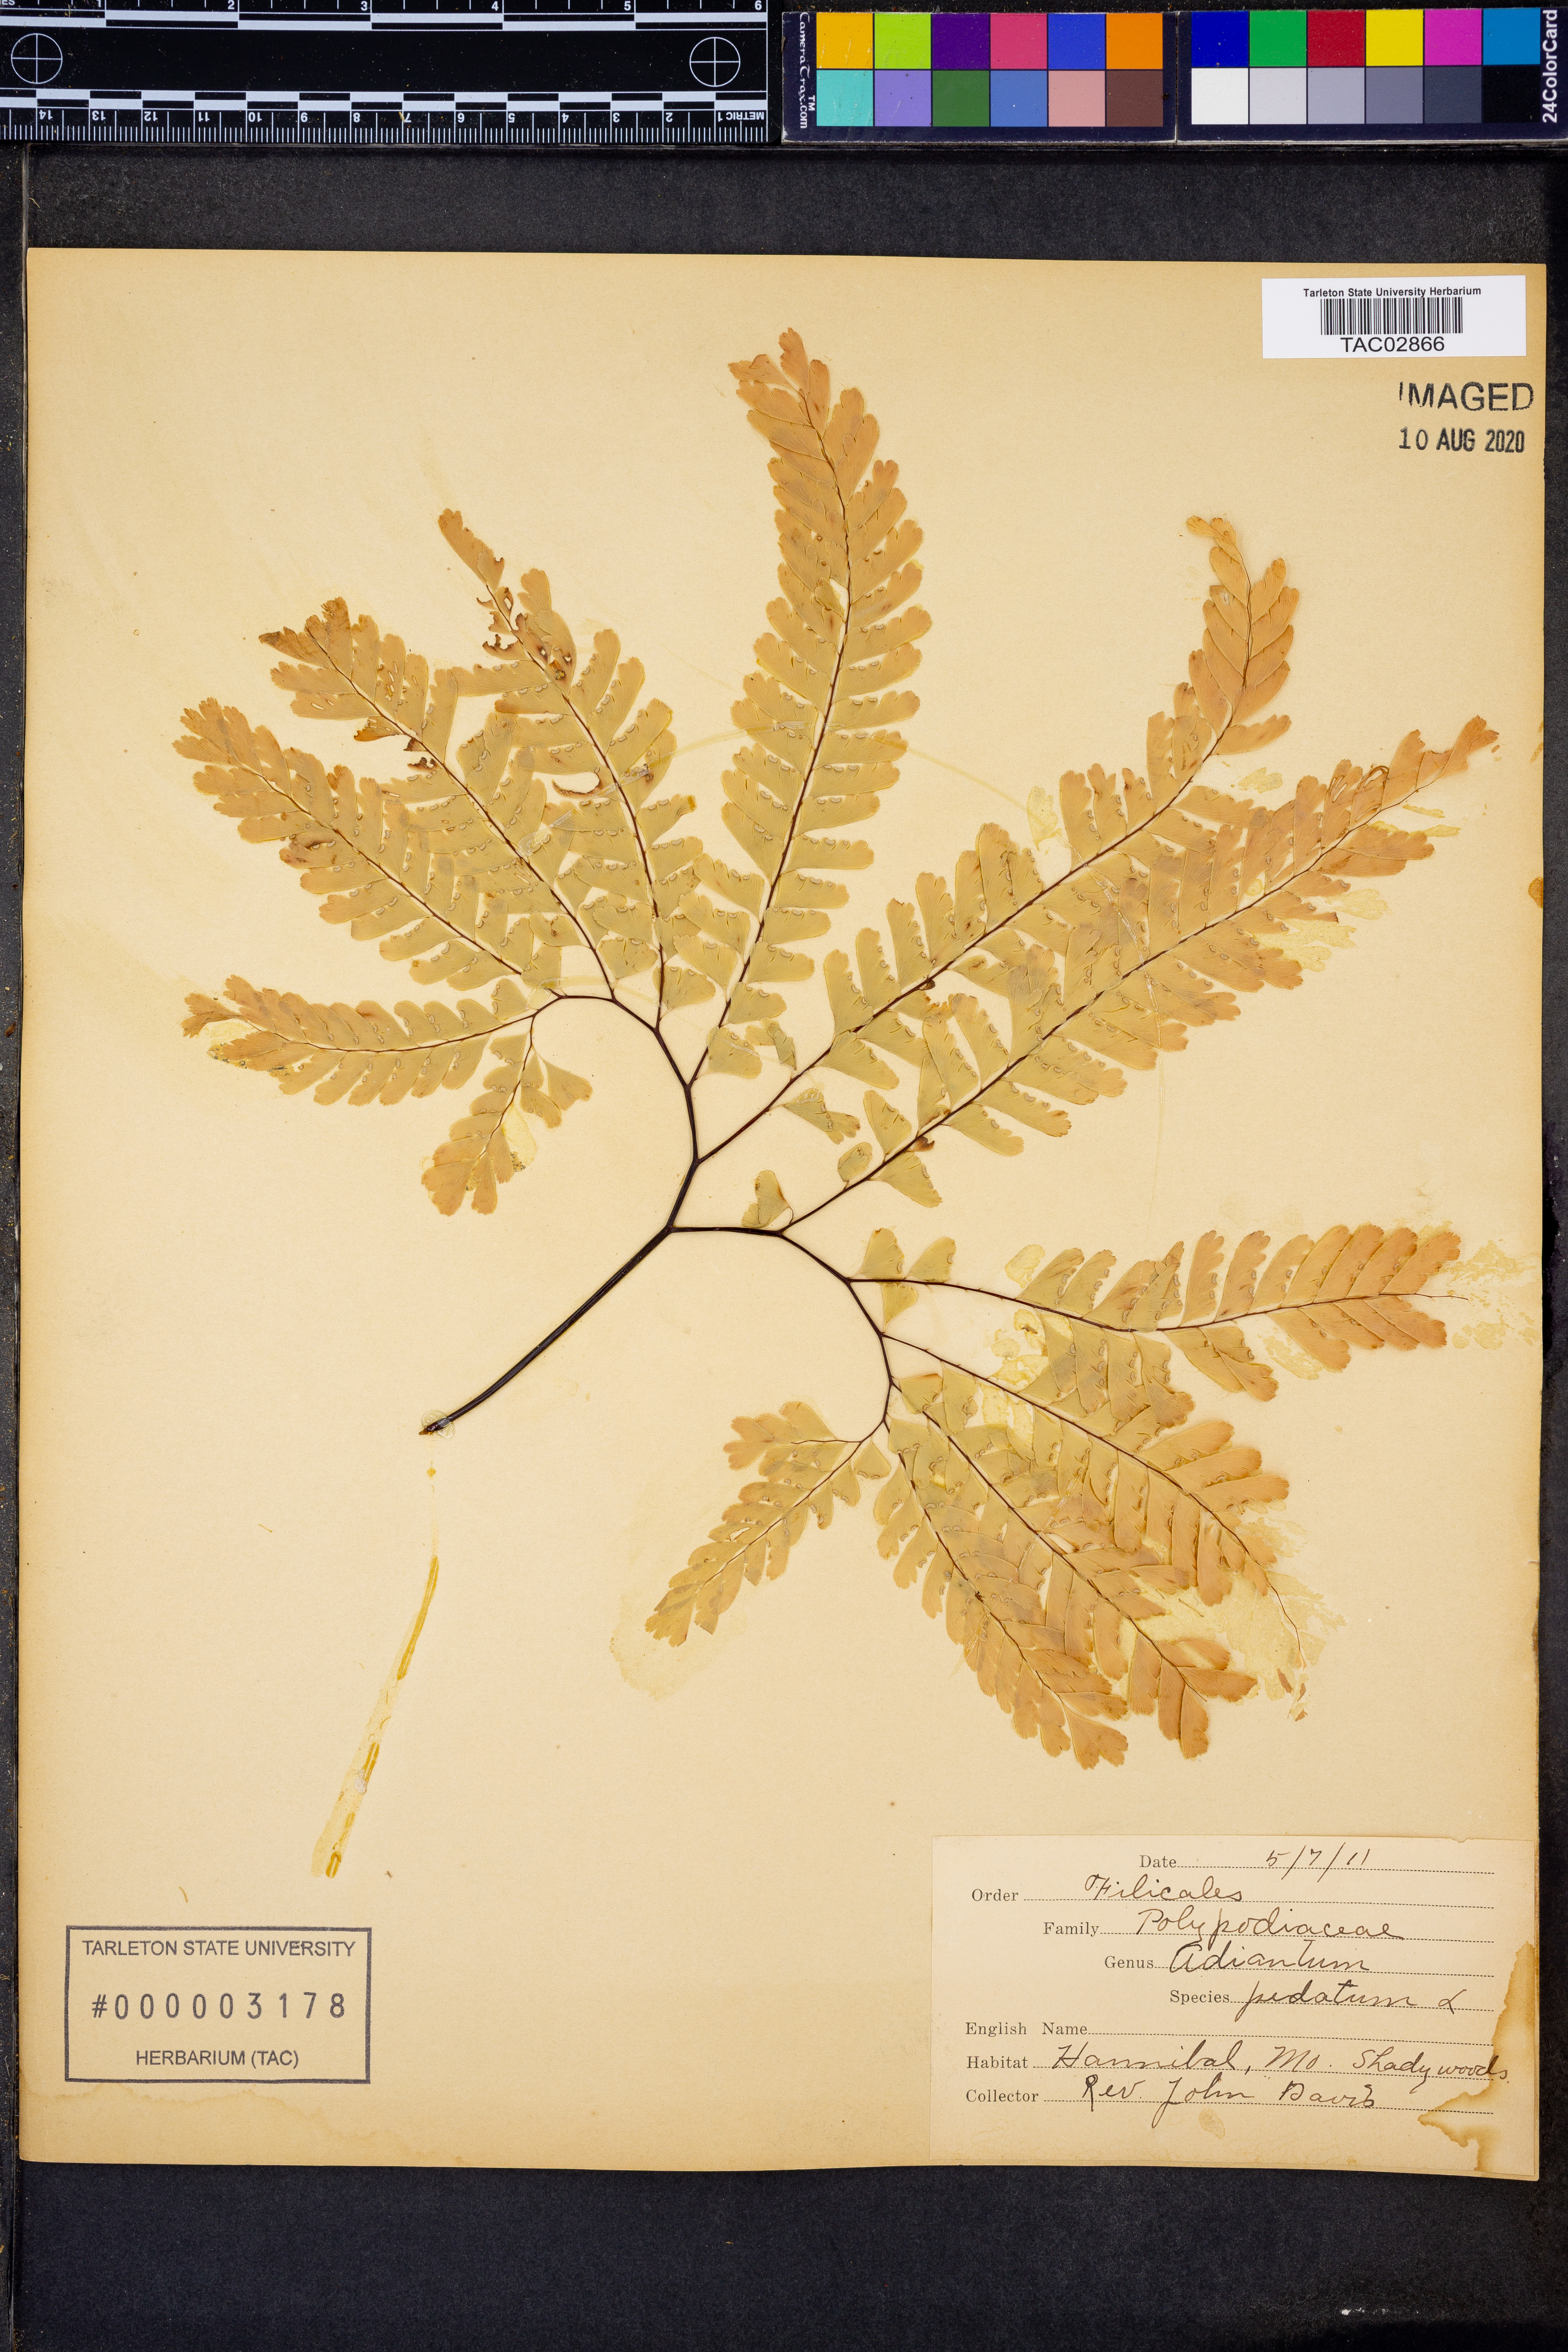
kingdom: Plantae
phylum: Tracheophyta
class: Polypodiopsida
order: Polypodiales
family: Pteridaceae
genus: Adiantum
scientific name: Adiantum pedatum
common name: Five-finger fern
